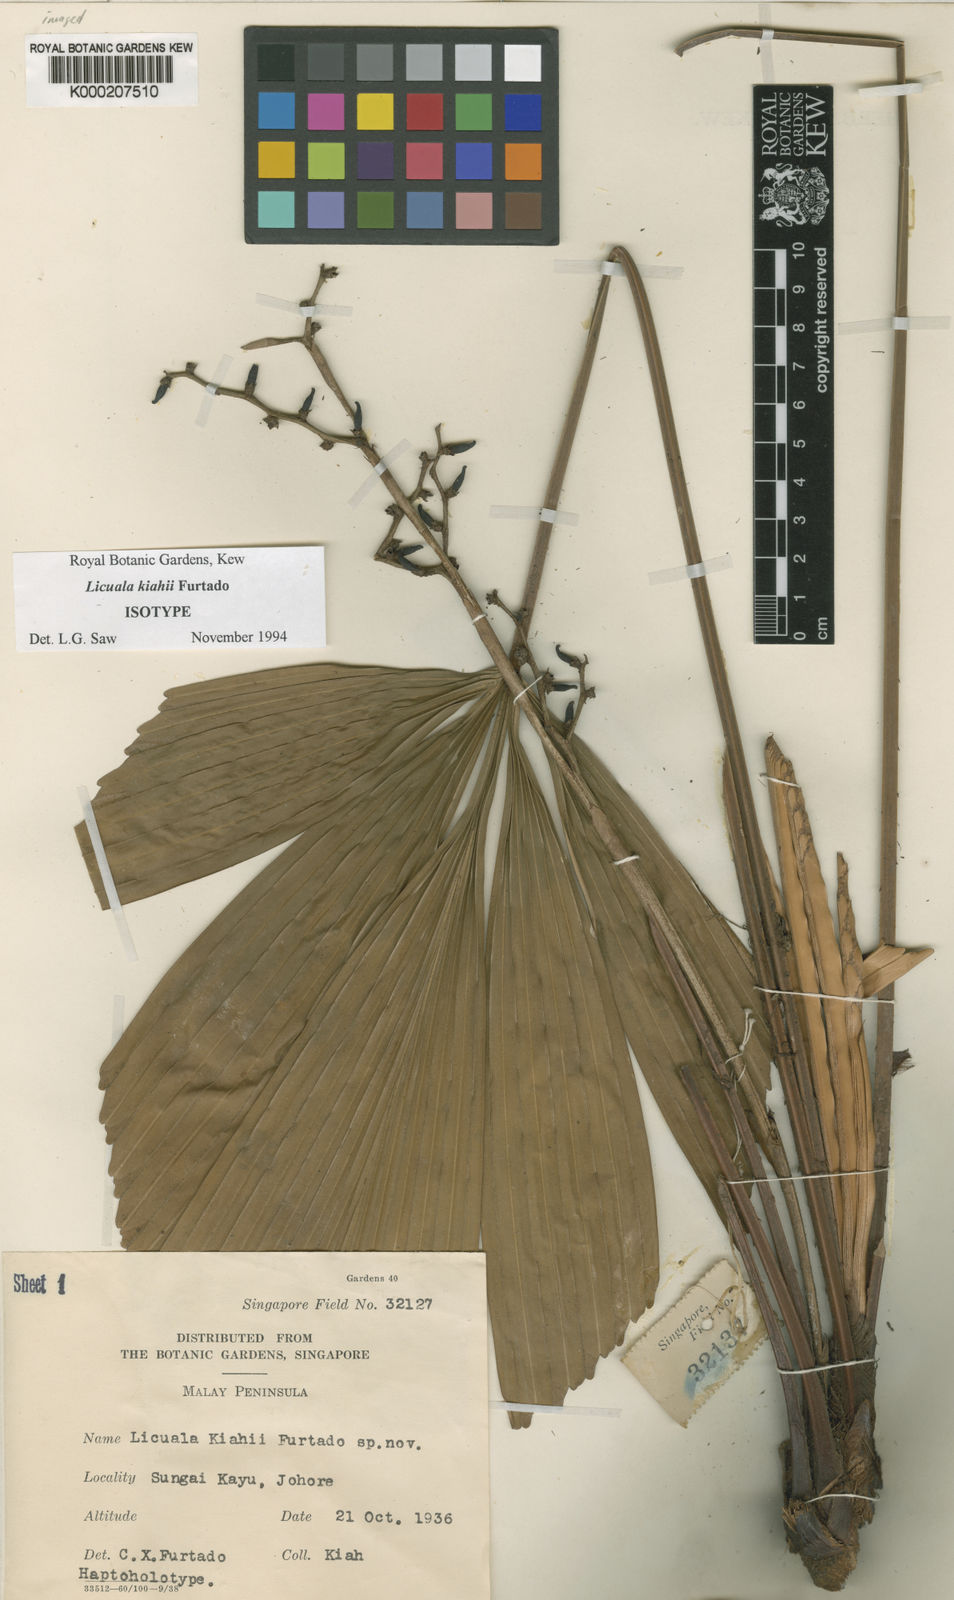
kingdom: Plantae
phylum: Tracheophyta
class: Liliopsida
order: Arecales
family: Arecaceae
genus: Licuala
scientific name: Licuala kiahii
